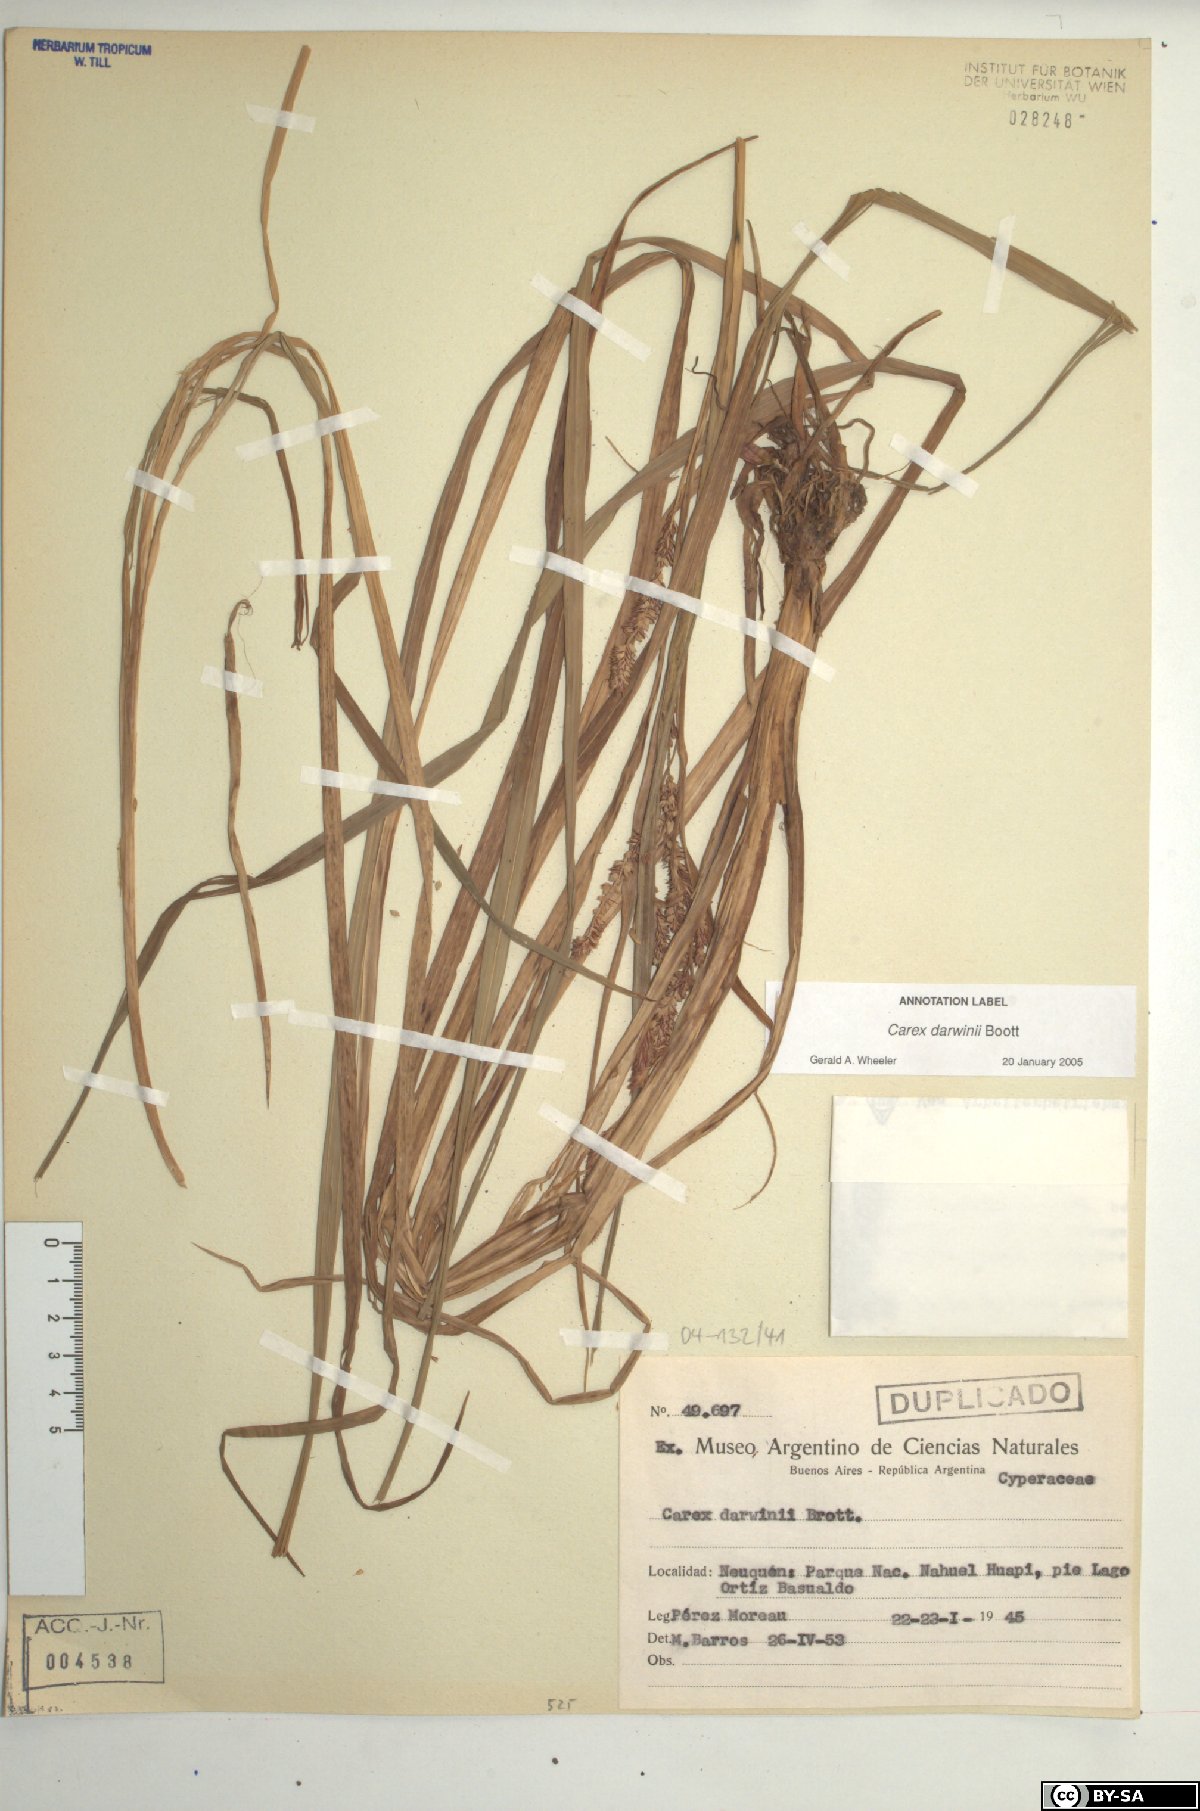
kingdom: Plantae
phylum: Tracheophyta
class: Liliopsida
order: Poales
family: Cyperaceae
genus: Carex
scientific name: Carex darwinii
